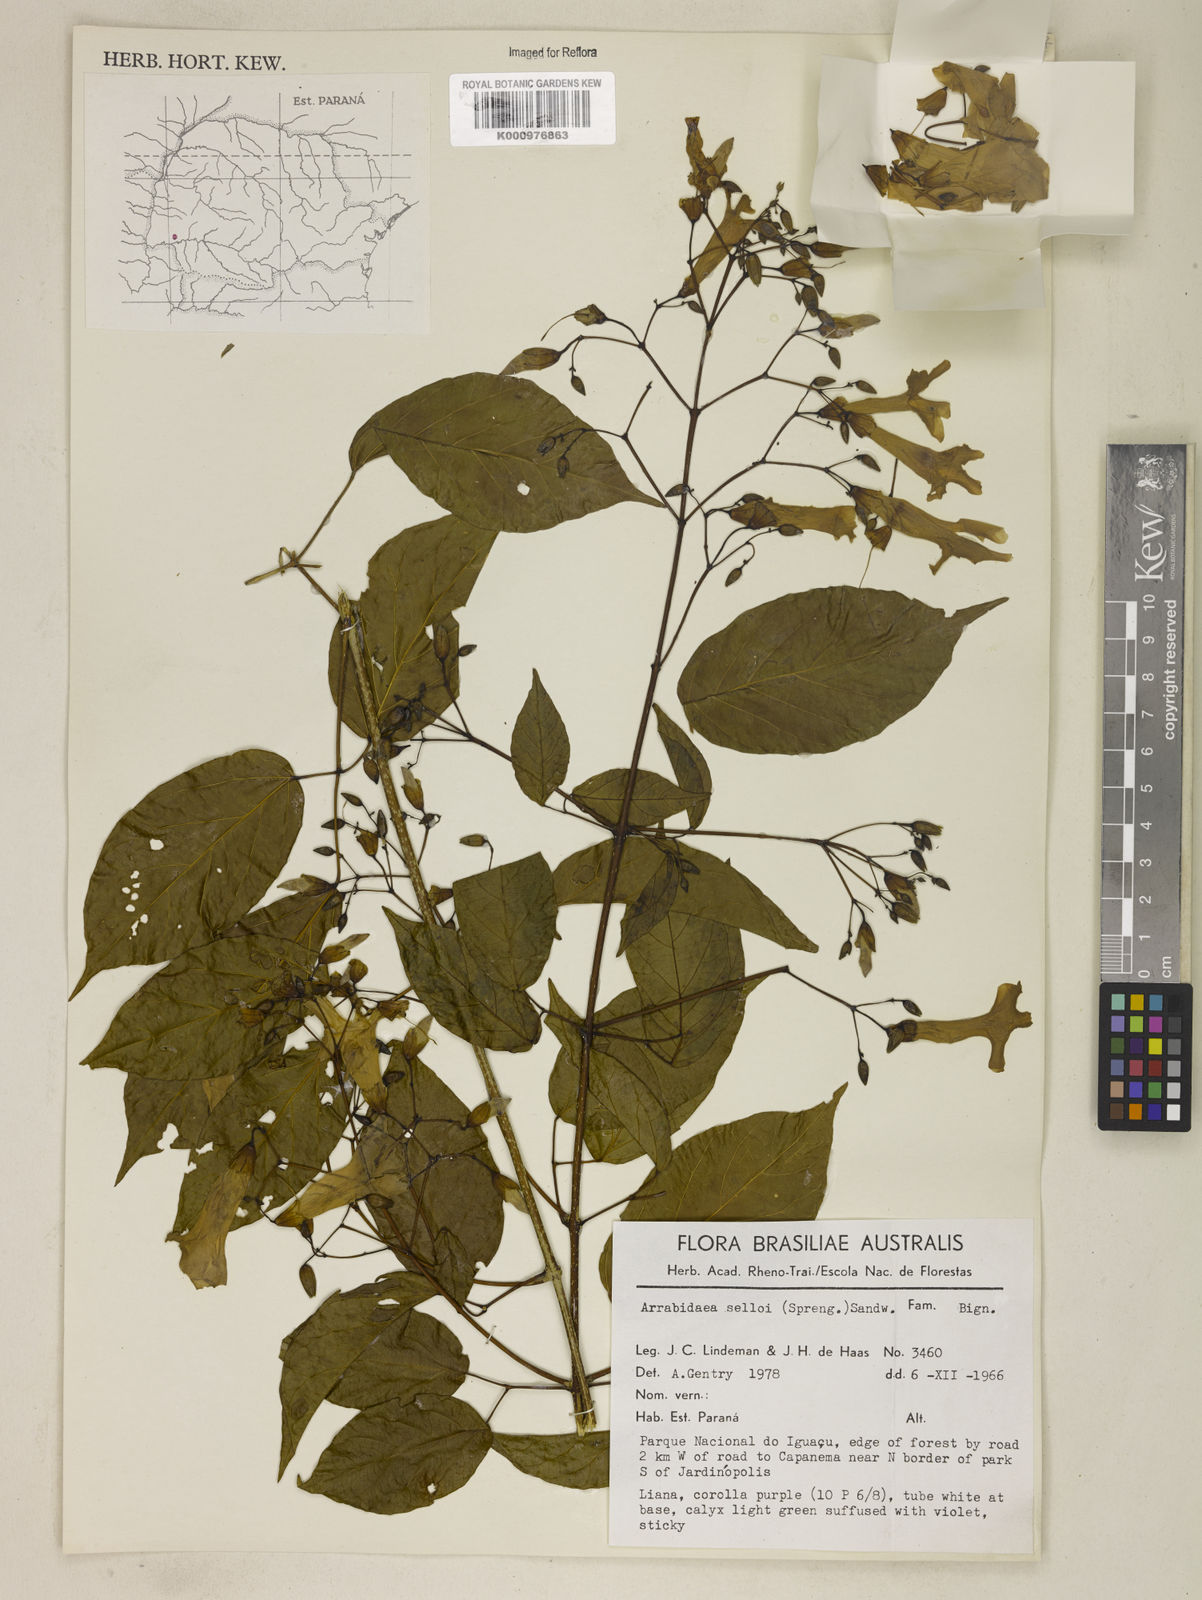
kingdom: Plantae
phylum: Tracheophyta
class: Magnoliopsida
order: Lamiales
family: Bignoniaceae
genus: Tanaecium
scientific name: Tanaecium selloi
